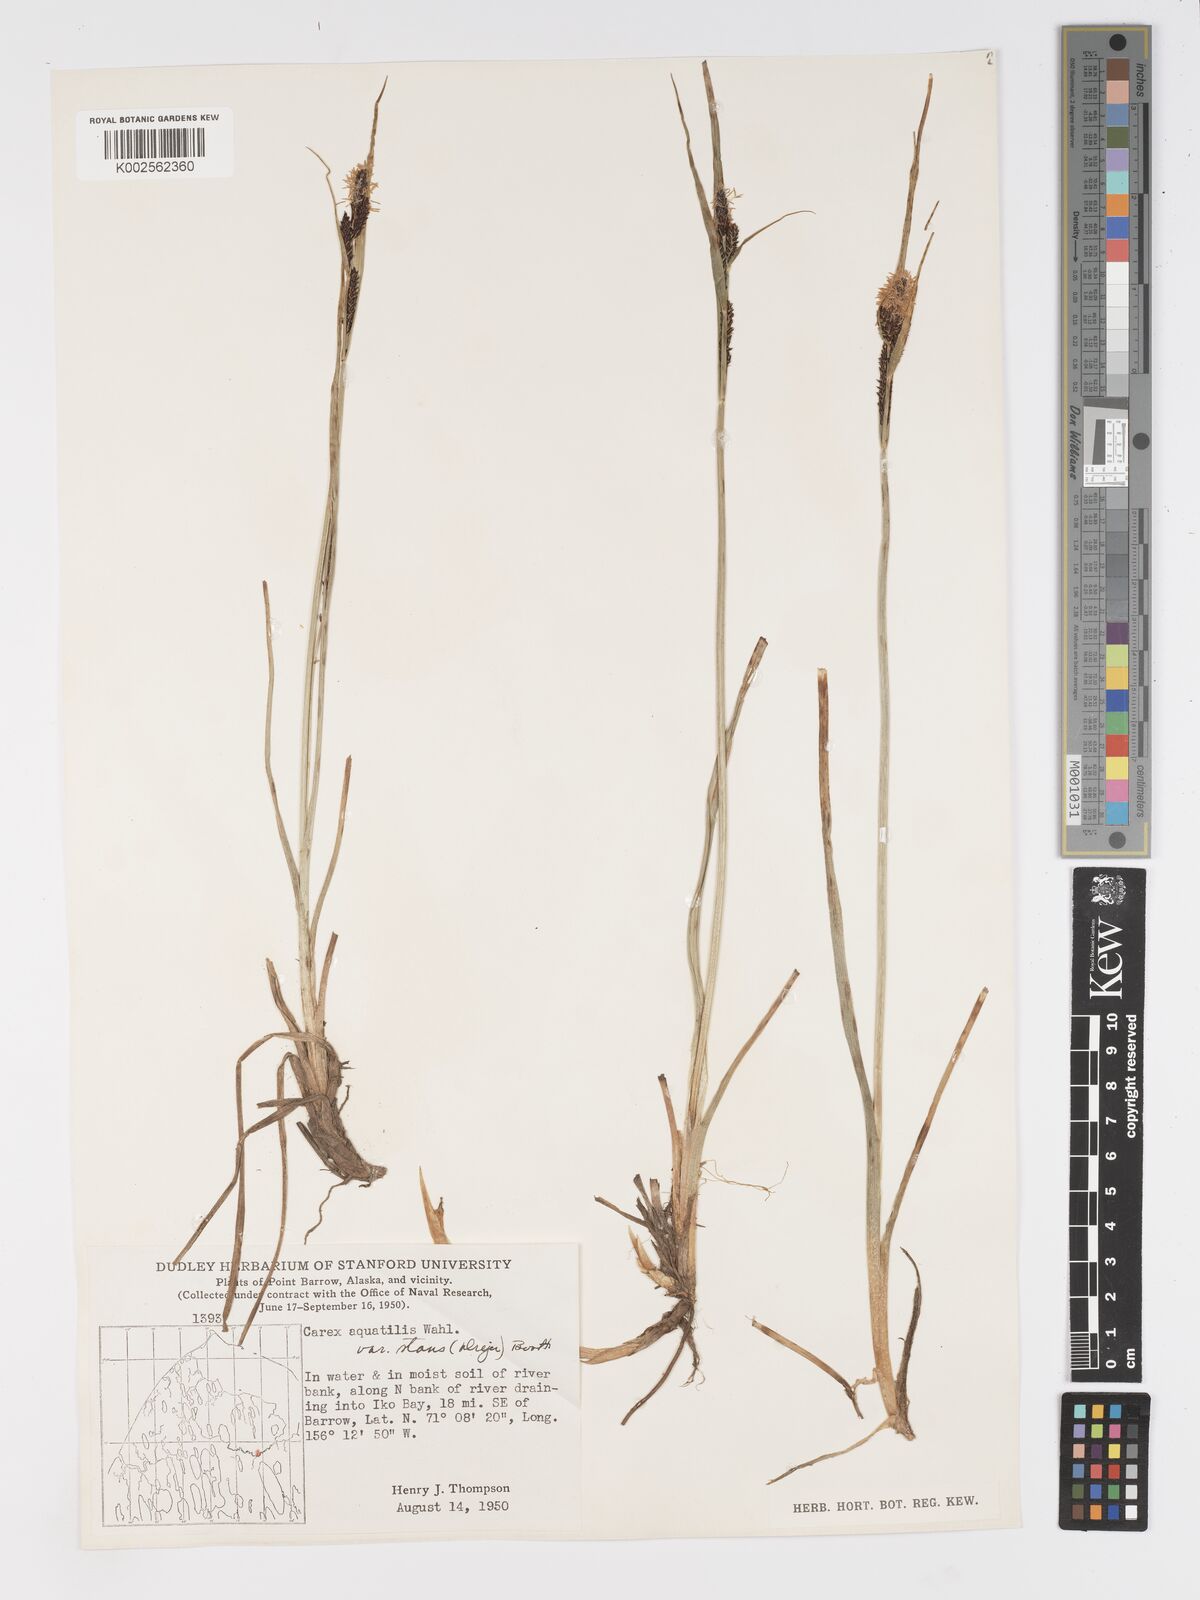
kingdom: Plantae
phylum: Tracheophyta
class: Liliopsida
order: Poales
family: Cyperaceae
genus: Carex
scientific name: Carex aquatilis
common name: Water sedge
